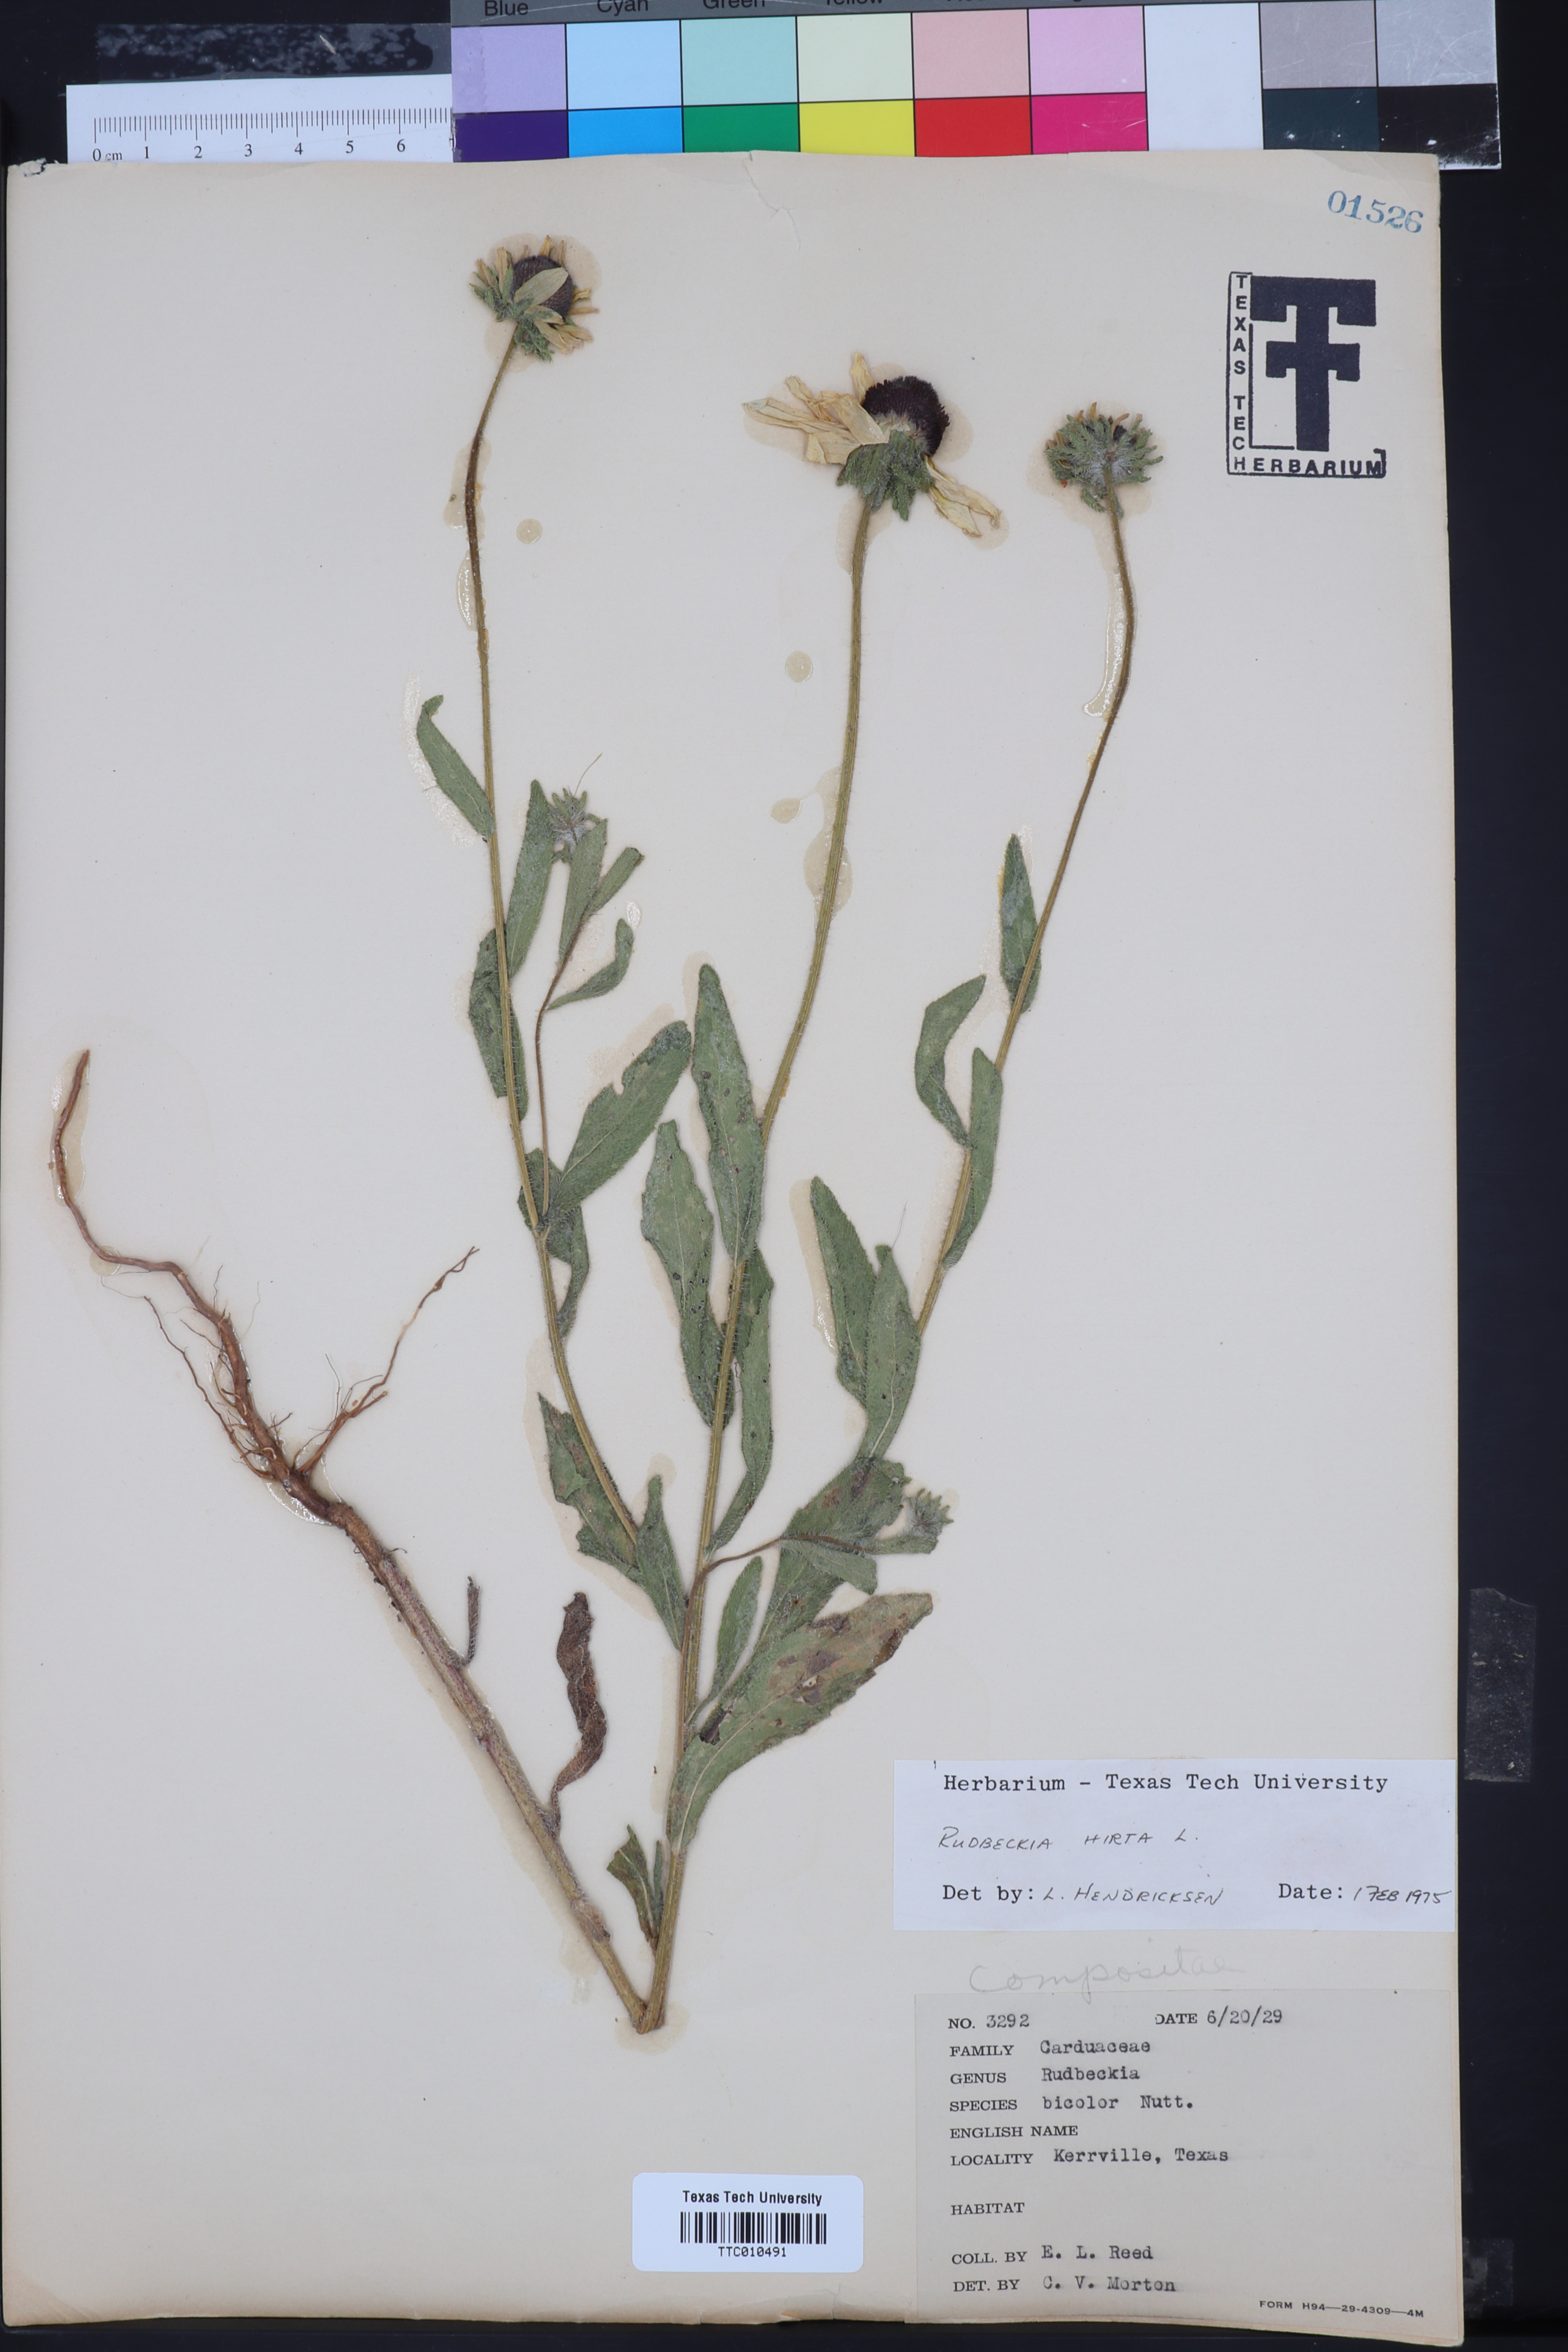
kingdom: Plantae
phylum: Tracheophyta
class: Magnoliopsida
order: Asterales
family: Asteraceae
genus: Rudbeckia
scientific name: Rudbeckia hirta
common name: Black-eyed-susan
